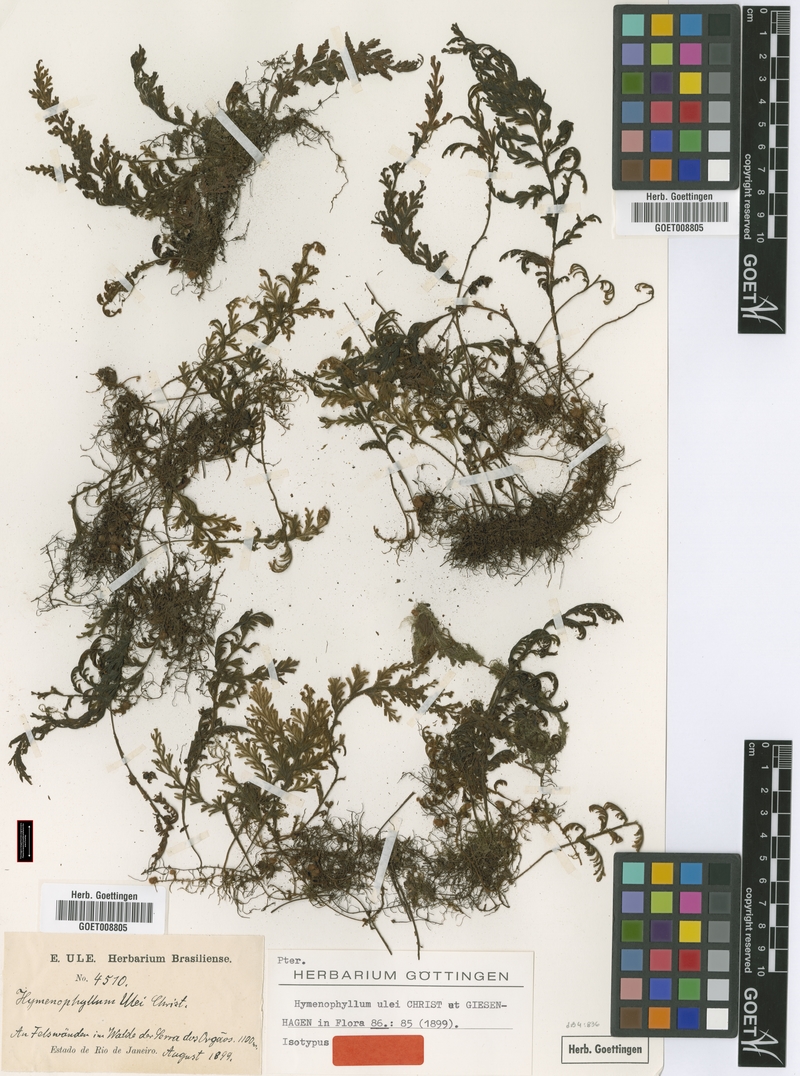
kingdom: Plantae
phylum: Tracheophyta
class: Polypodiopsida
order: Hymenophyllales
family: Hymenophyllaceae
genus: Hymenophyllum
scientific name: Hymenophyllum vestitum
